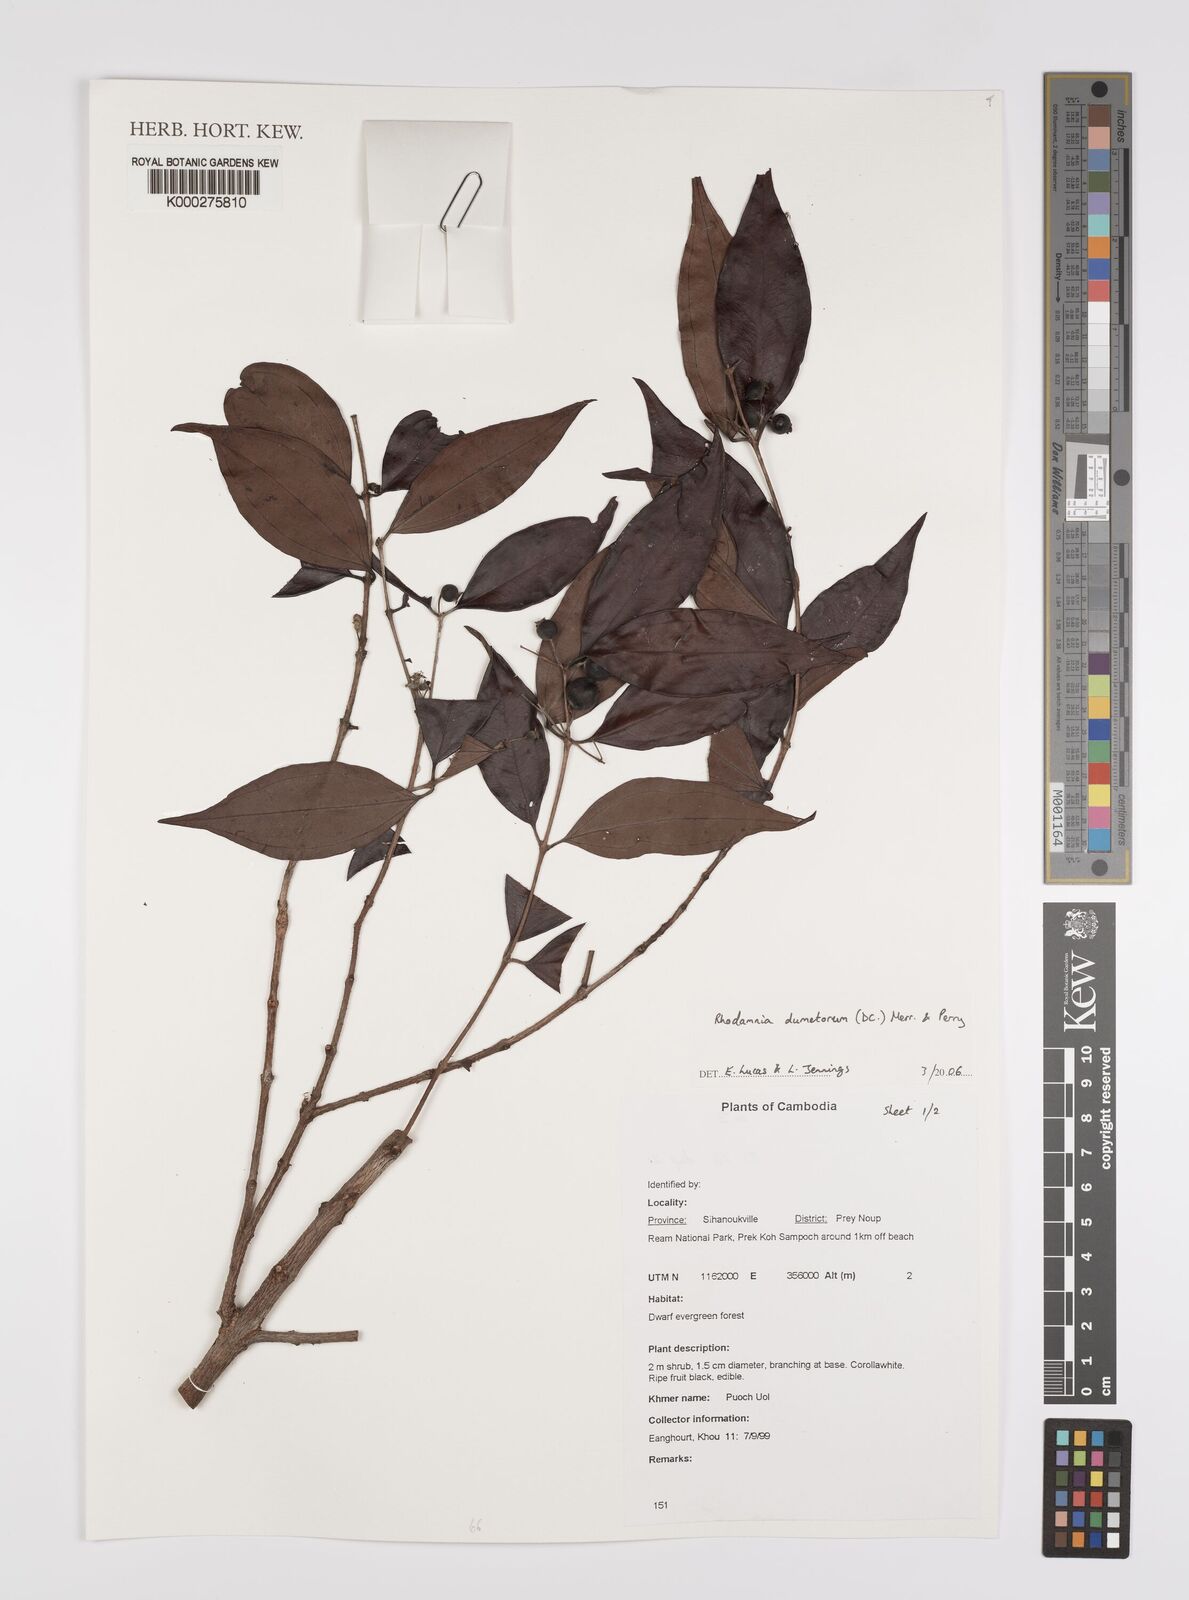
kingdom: Plantae
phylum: Tracheophyta
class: Magnoliopsida
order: Myrtales
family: Myrtaceae
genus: Rhodamnia
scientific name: Rhodamnia dumetorum
